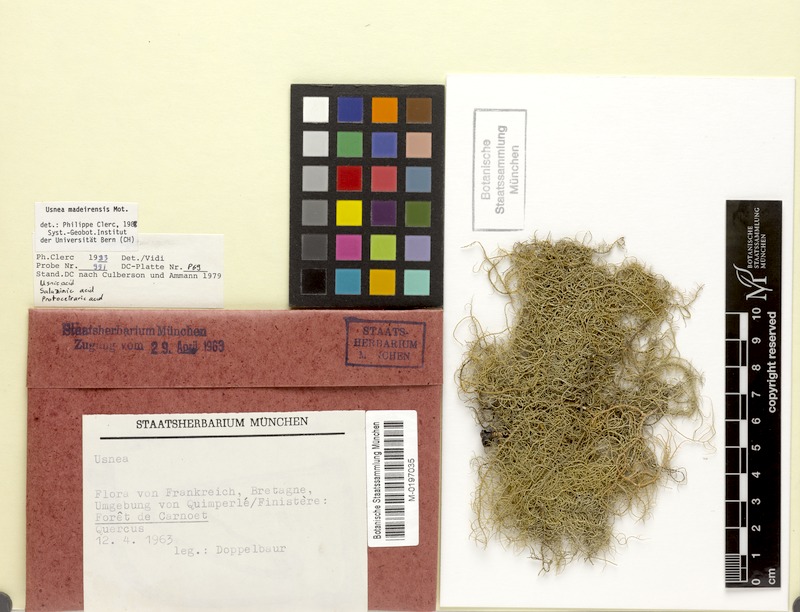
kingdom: Fungi
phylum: Ascomycota
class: Lecanoromycetes
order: Lecanorales
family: Parmeliaceae
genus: Usnea
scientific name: Usnea silesiaca
